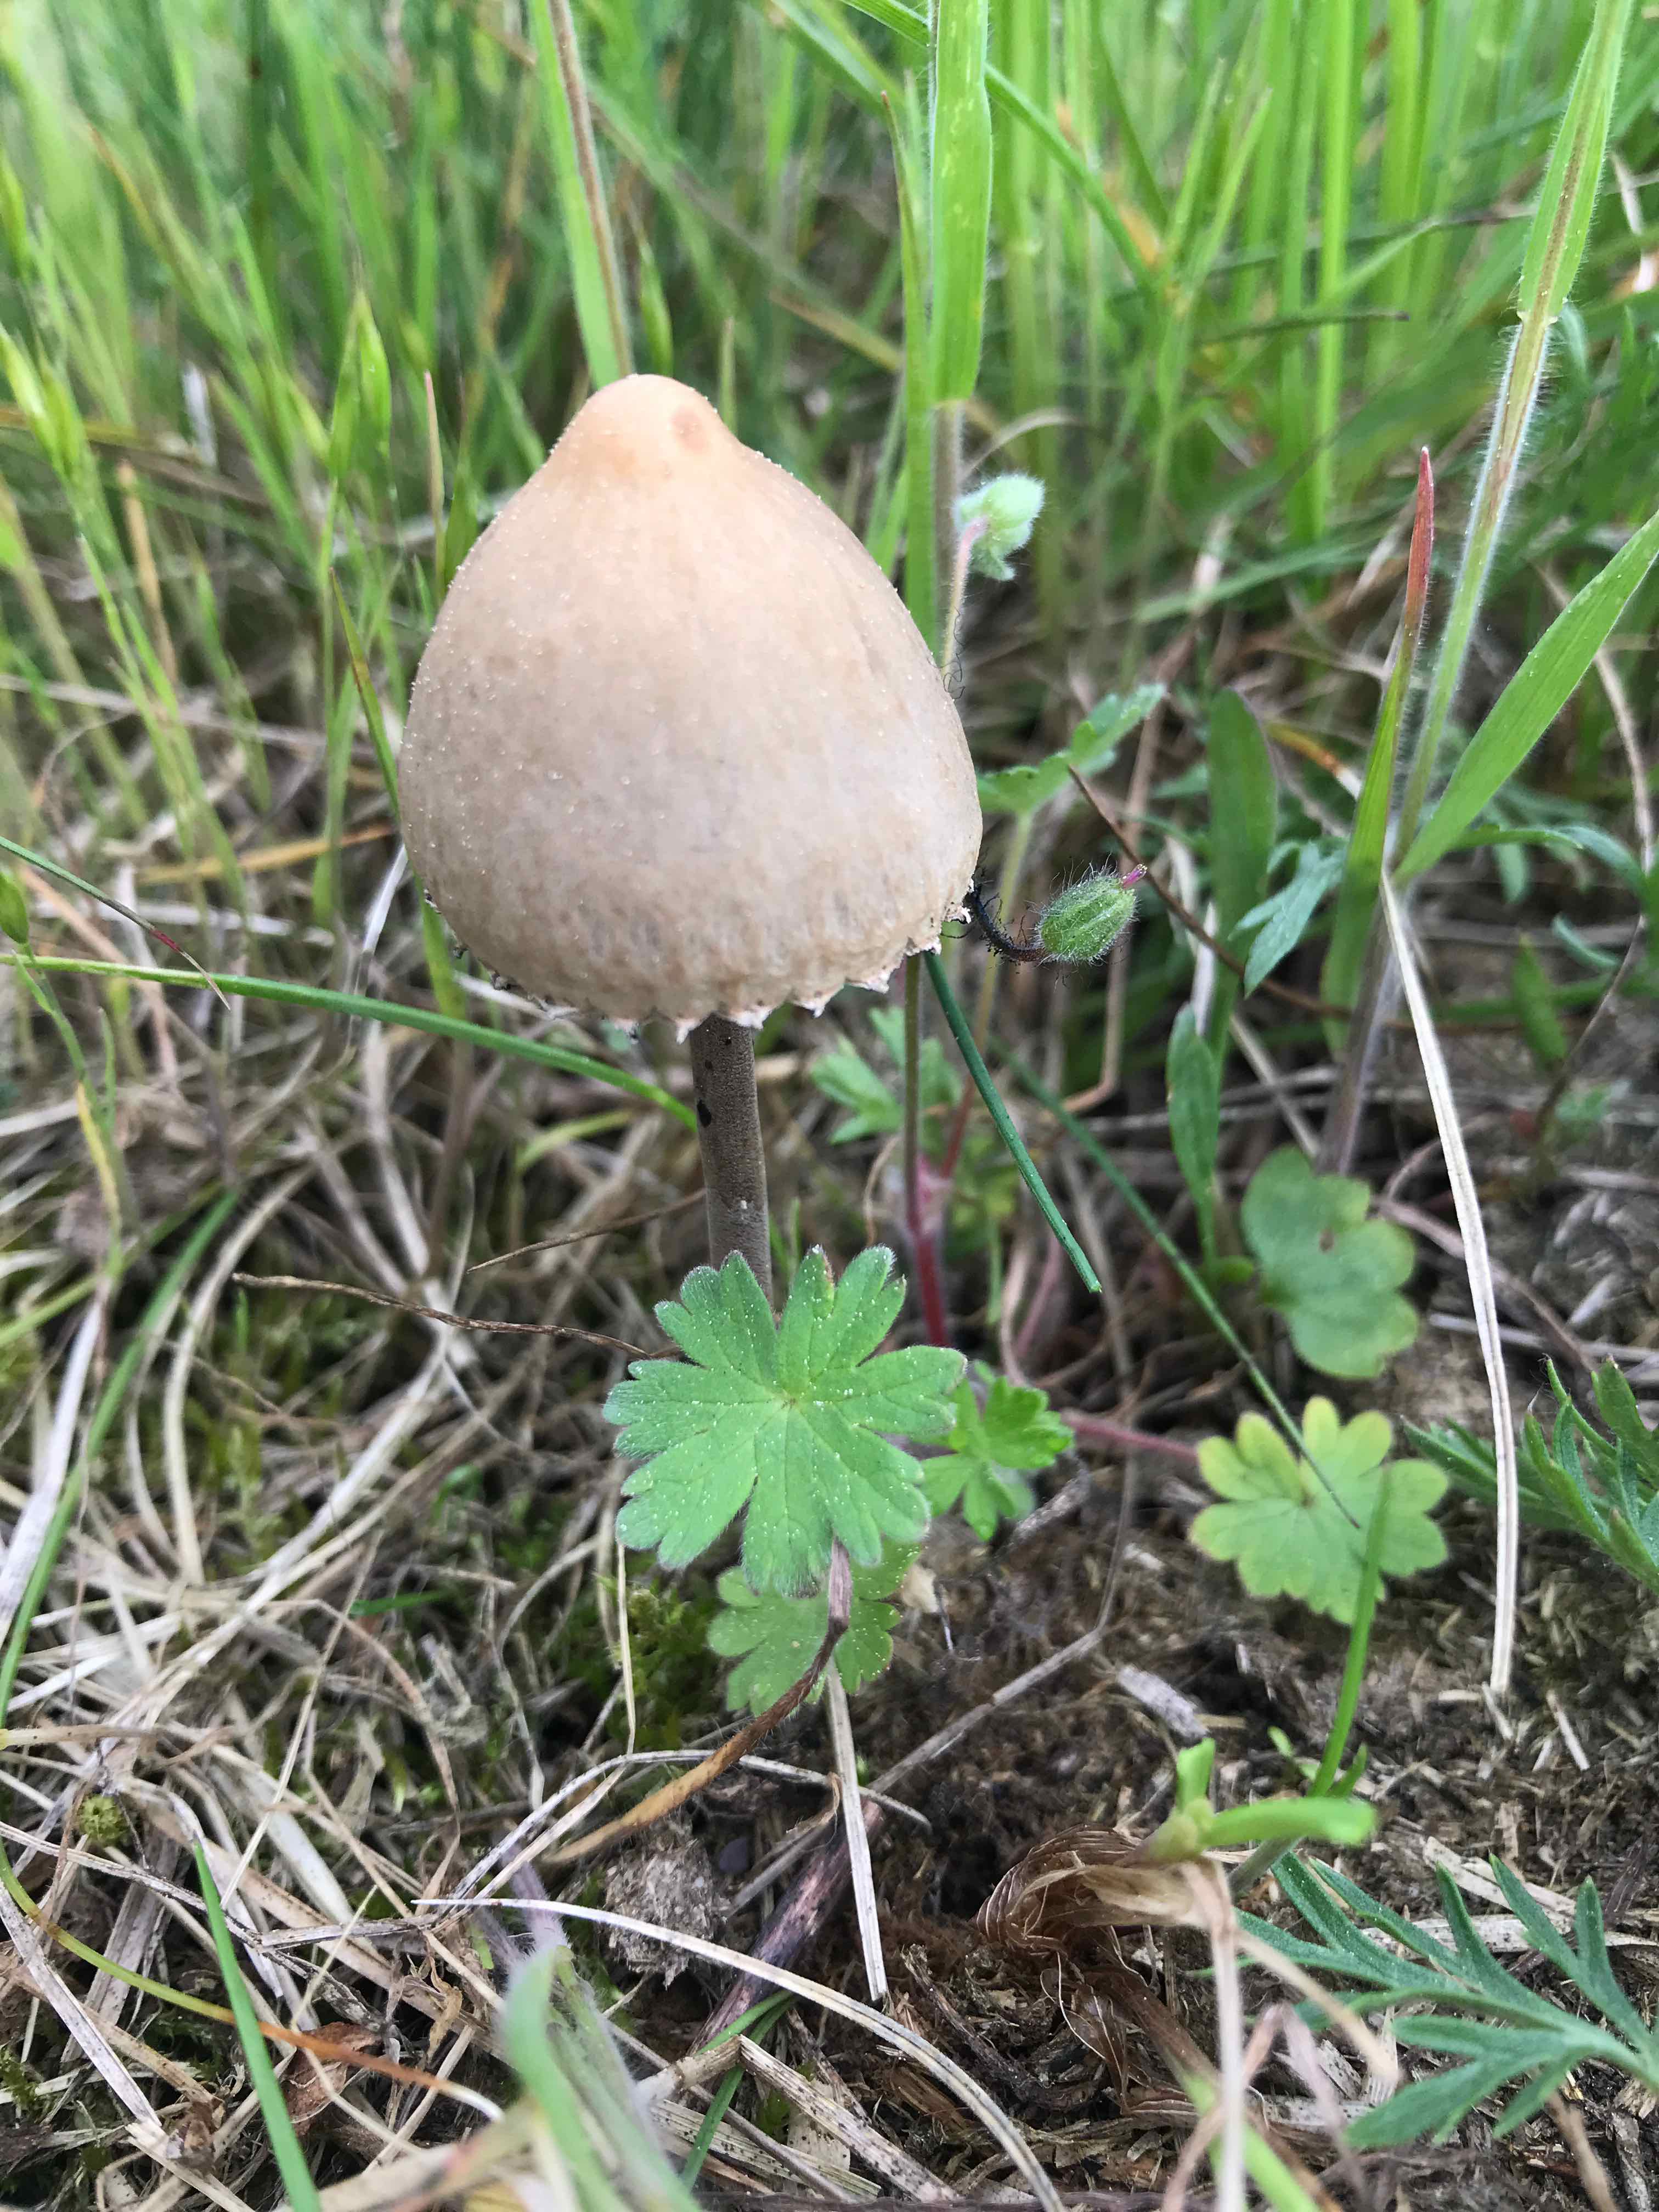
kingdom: Fungi
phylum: Basidiomycota
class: Agaricomycetes
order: Agaricales
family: Bolbitiaceae
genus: Panaeolus
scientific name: Panaeolus papilionaceus
